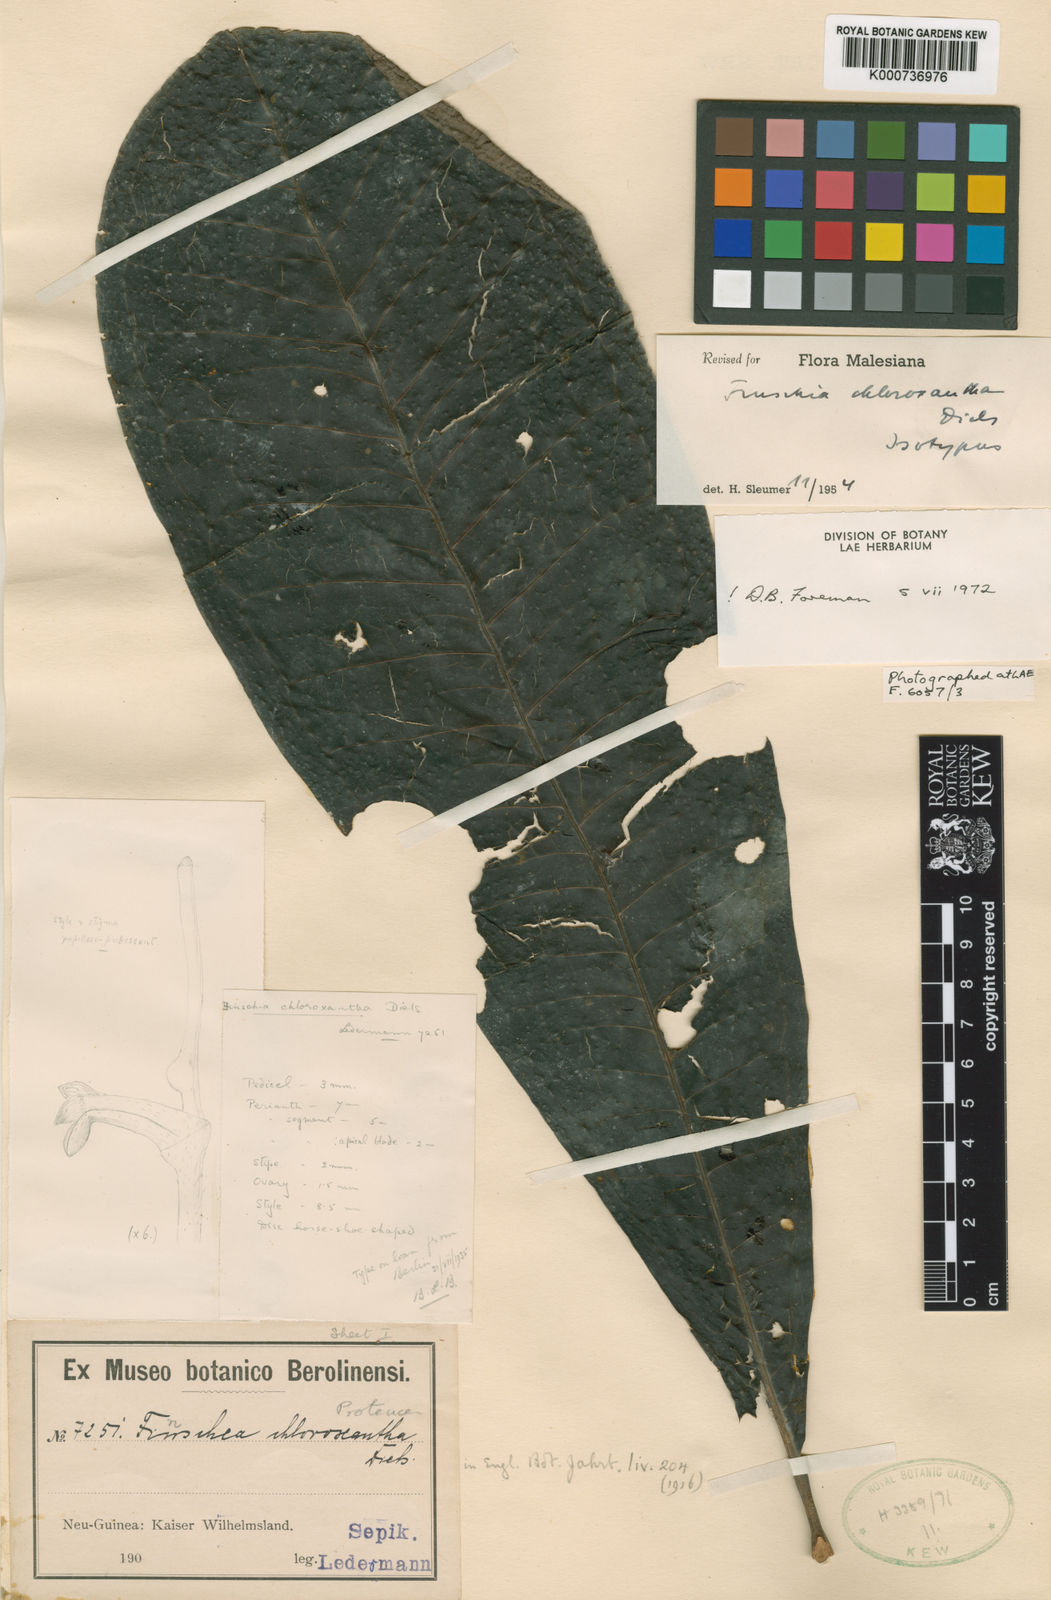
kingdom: Plantae
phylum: Tracheophyta
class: Magnoliopsida
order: Proteales
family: Proteaceae
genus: Finschia
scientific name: Finschia chloroxantha
